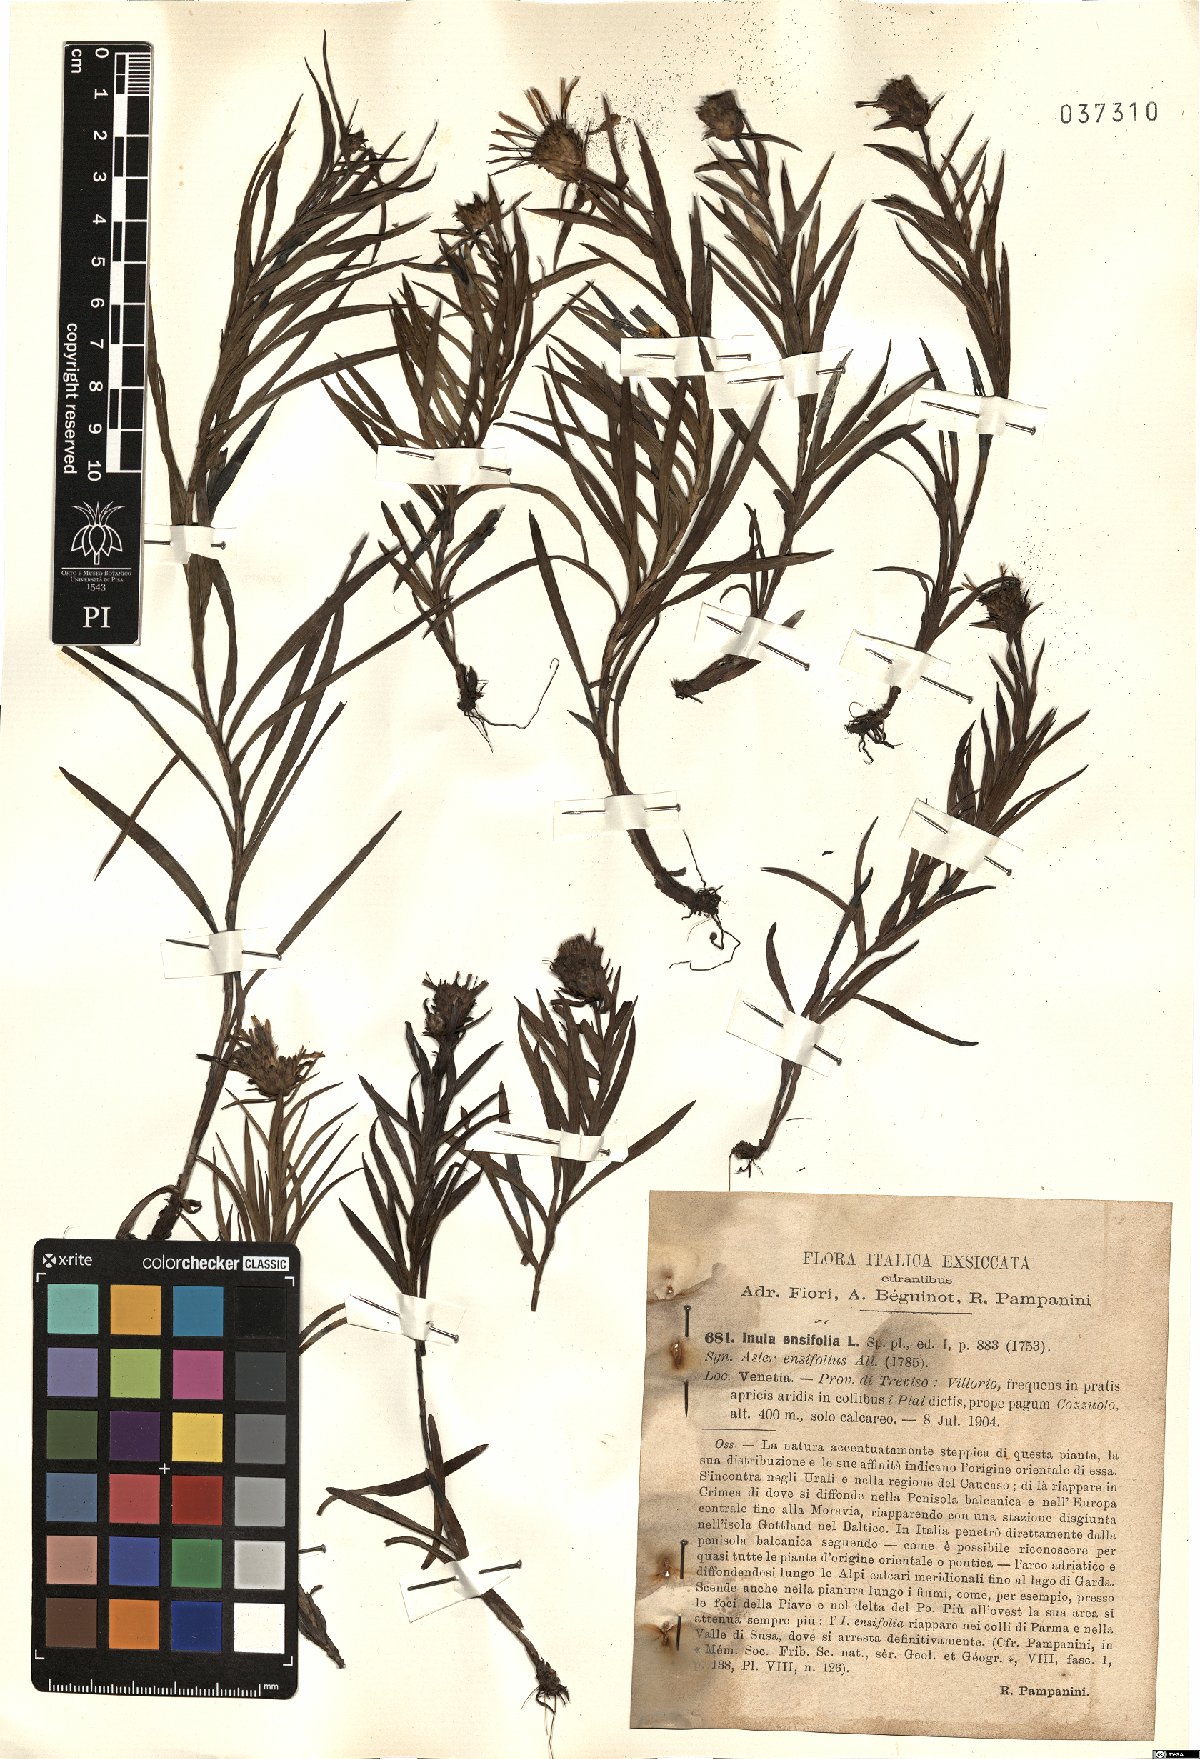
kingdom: Plantae
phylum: Tracheophyta
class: Magnoliopsida
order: Asterales
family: Asteraceae
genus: Pentanema
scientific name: Pentanema ensifolium
